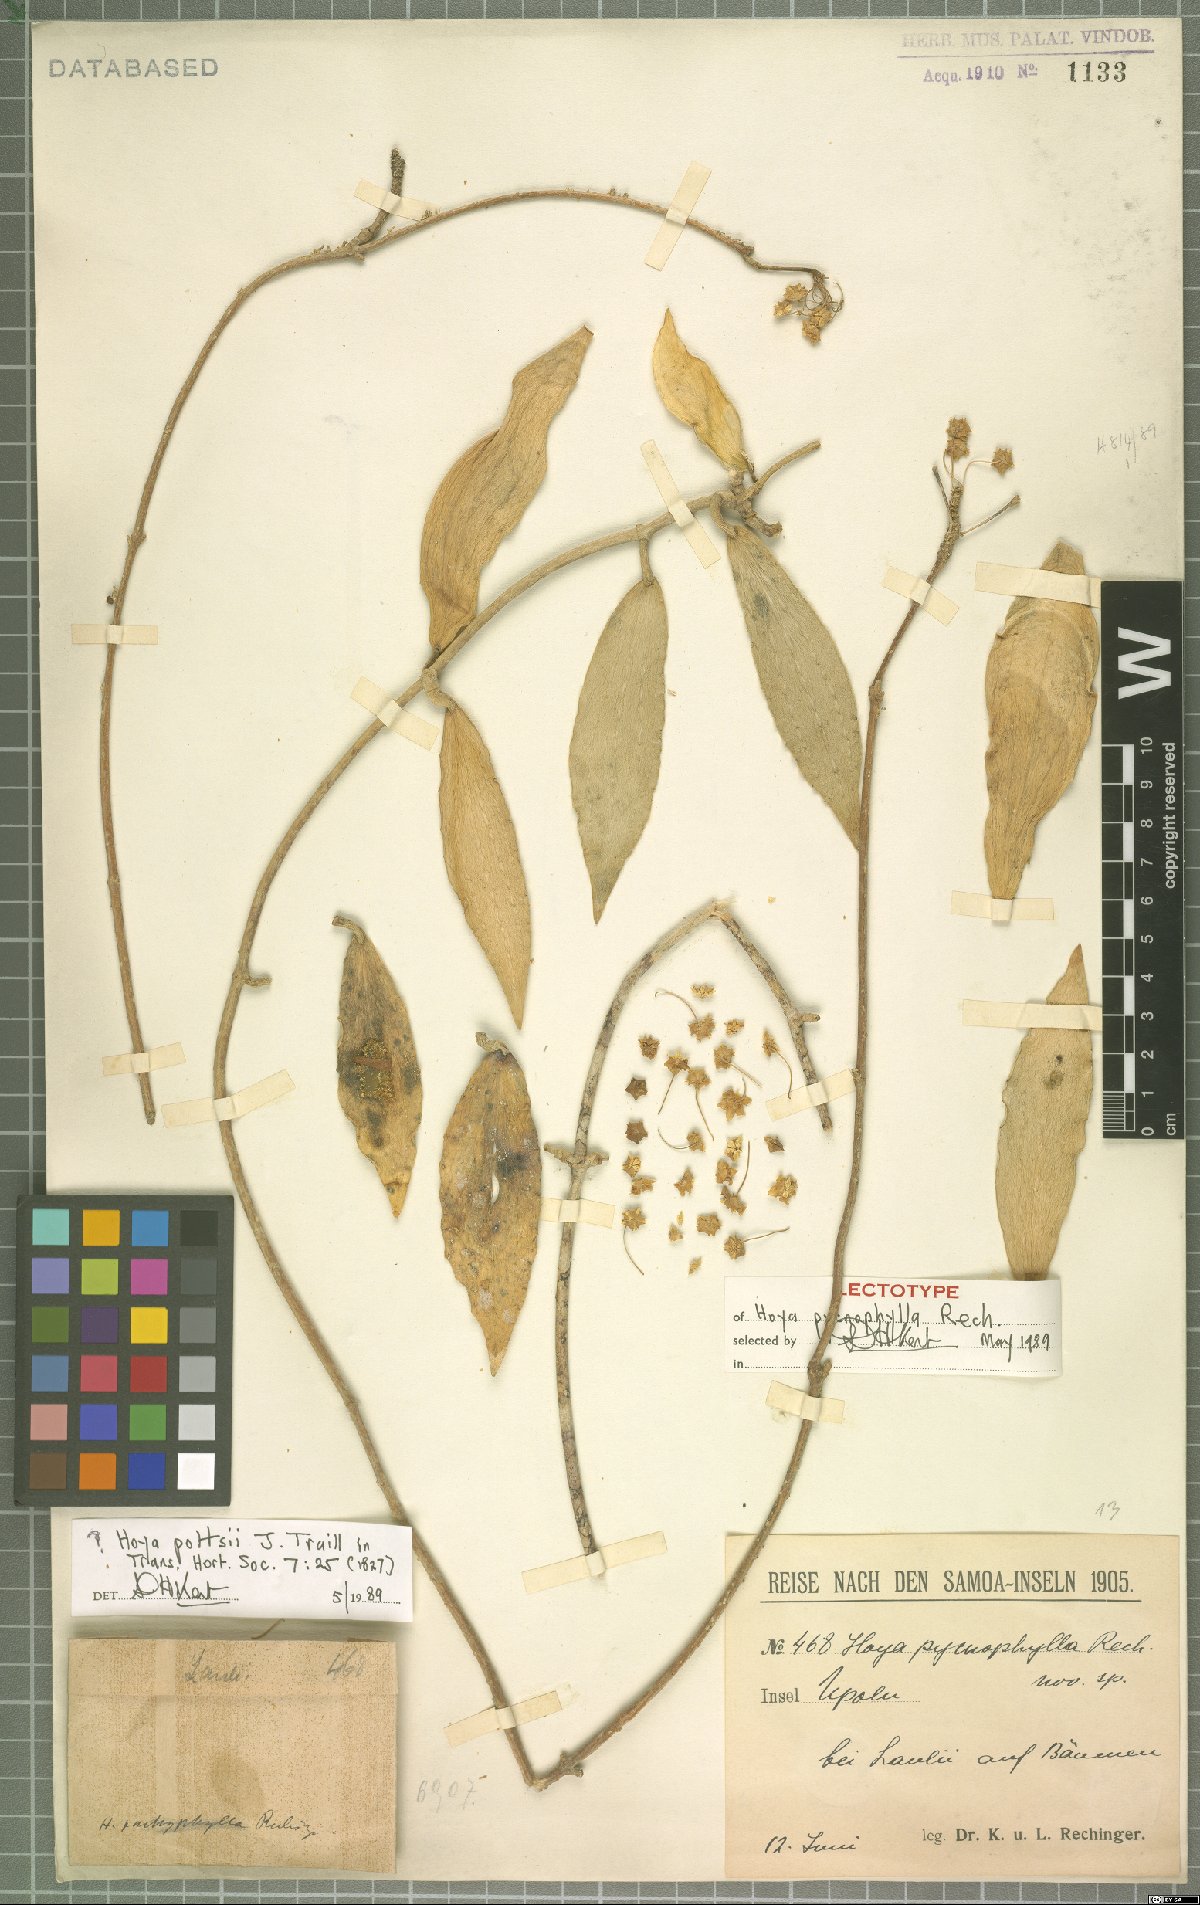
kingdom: Plantae
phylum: Tracheophyta
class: Magnoliopsida
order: Gentianales
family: Apocynaceae
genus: Hoya
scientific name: Hoya verticillata
